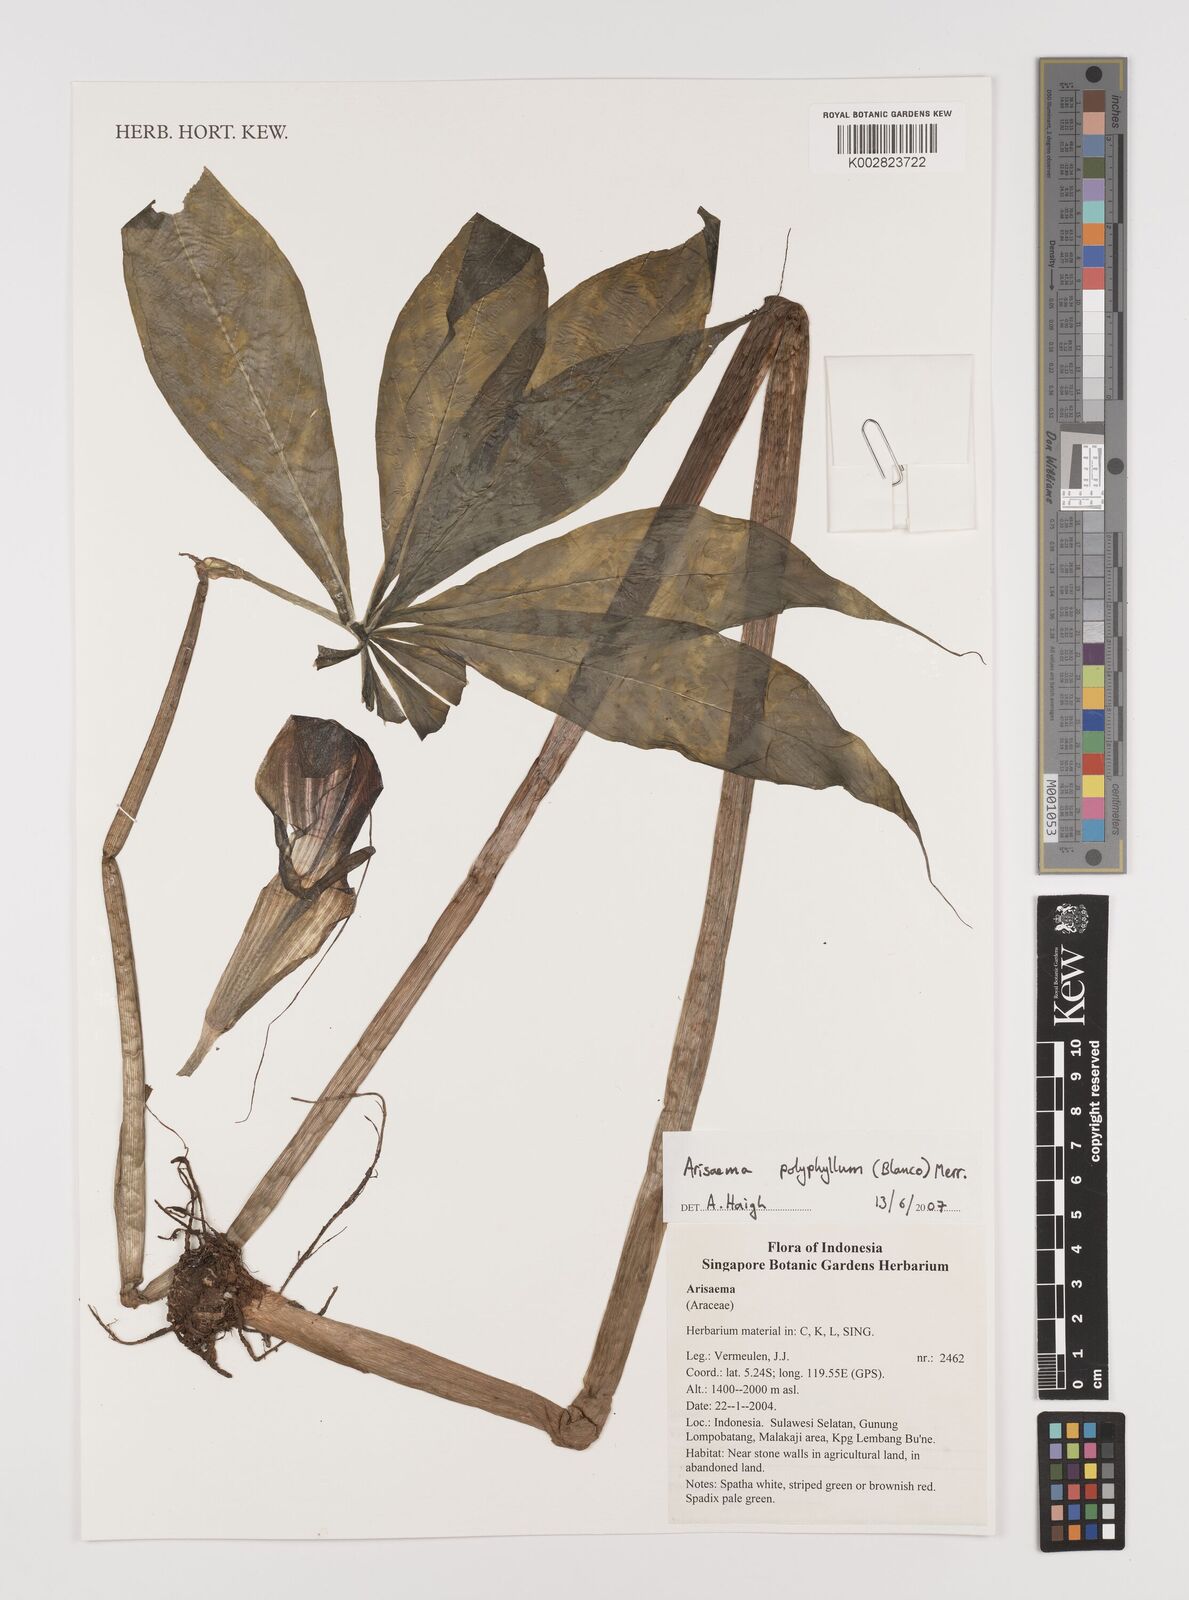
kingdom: Plantae
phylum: Tracheophyta
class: Liliopsida
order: Alismatales
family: Araceae
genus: Arisaema
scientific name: Arisaema polyphyllum
